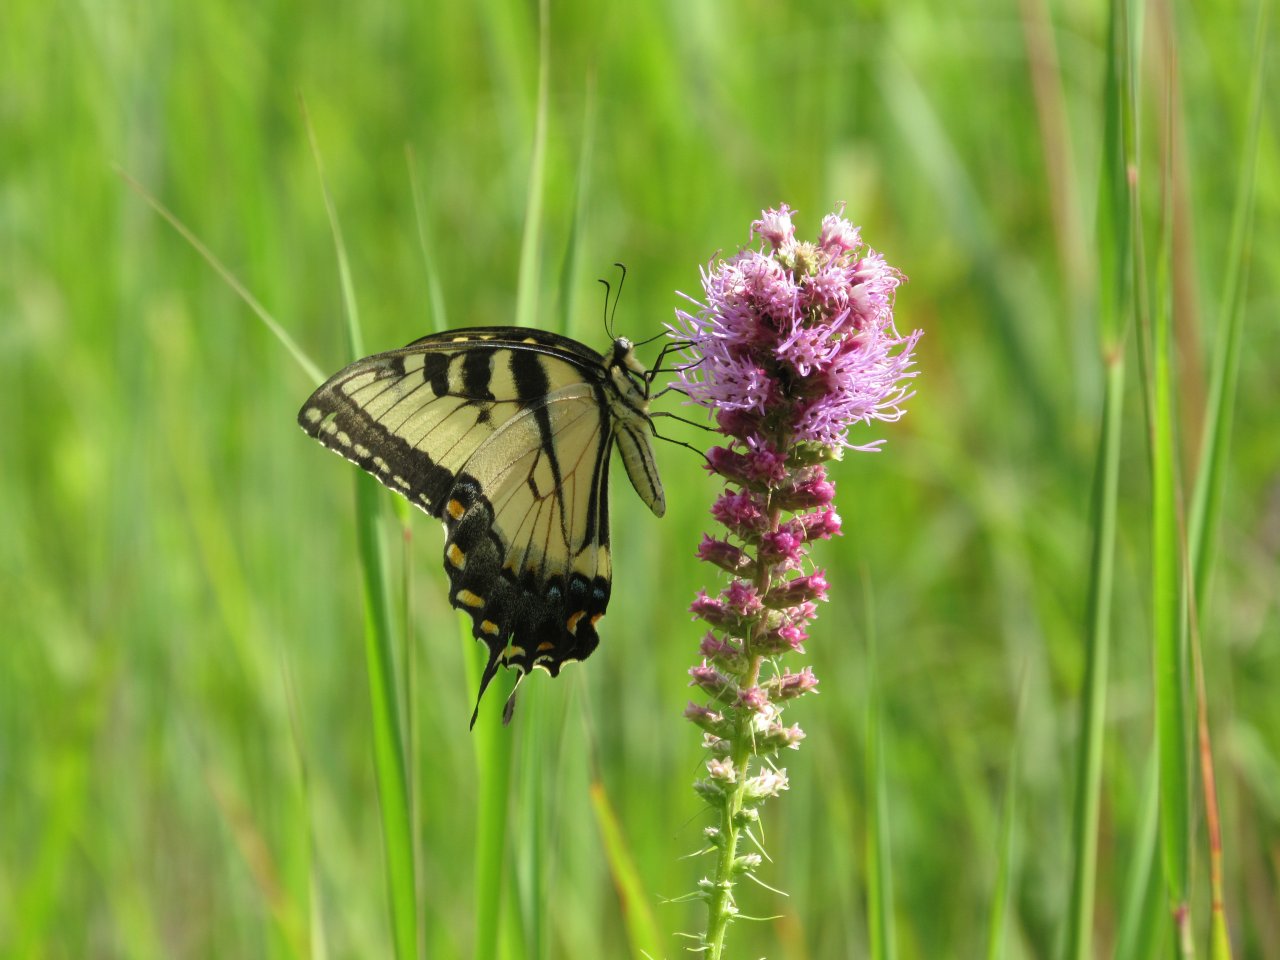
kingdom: Animalia
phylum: Arthropoda
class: Insecta
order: Lepidoptera
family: Papilionidae
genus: Pterourus
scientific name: Pterourus glaucus
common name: Eastern Tiger Swallowtail
